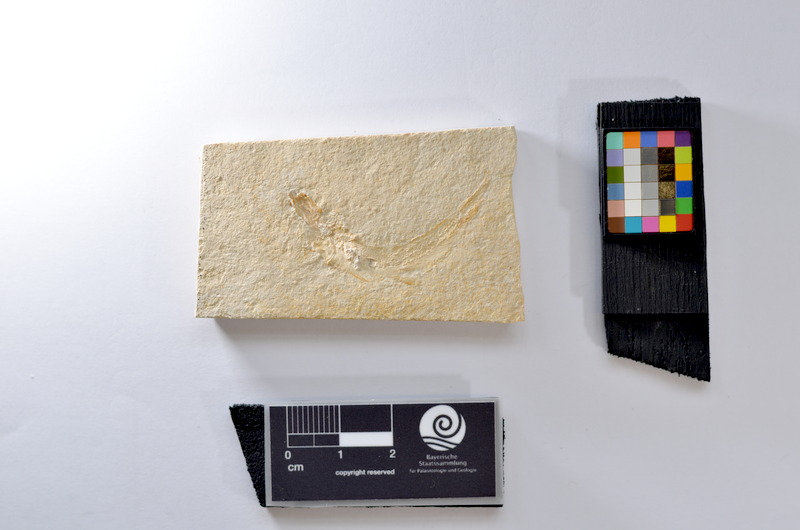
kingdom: Animalia
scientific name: Animalia
